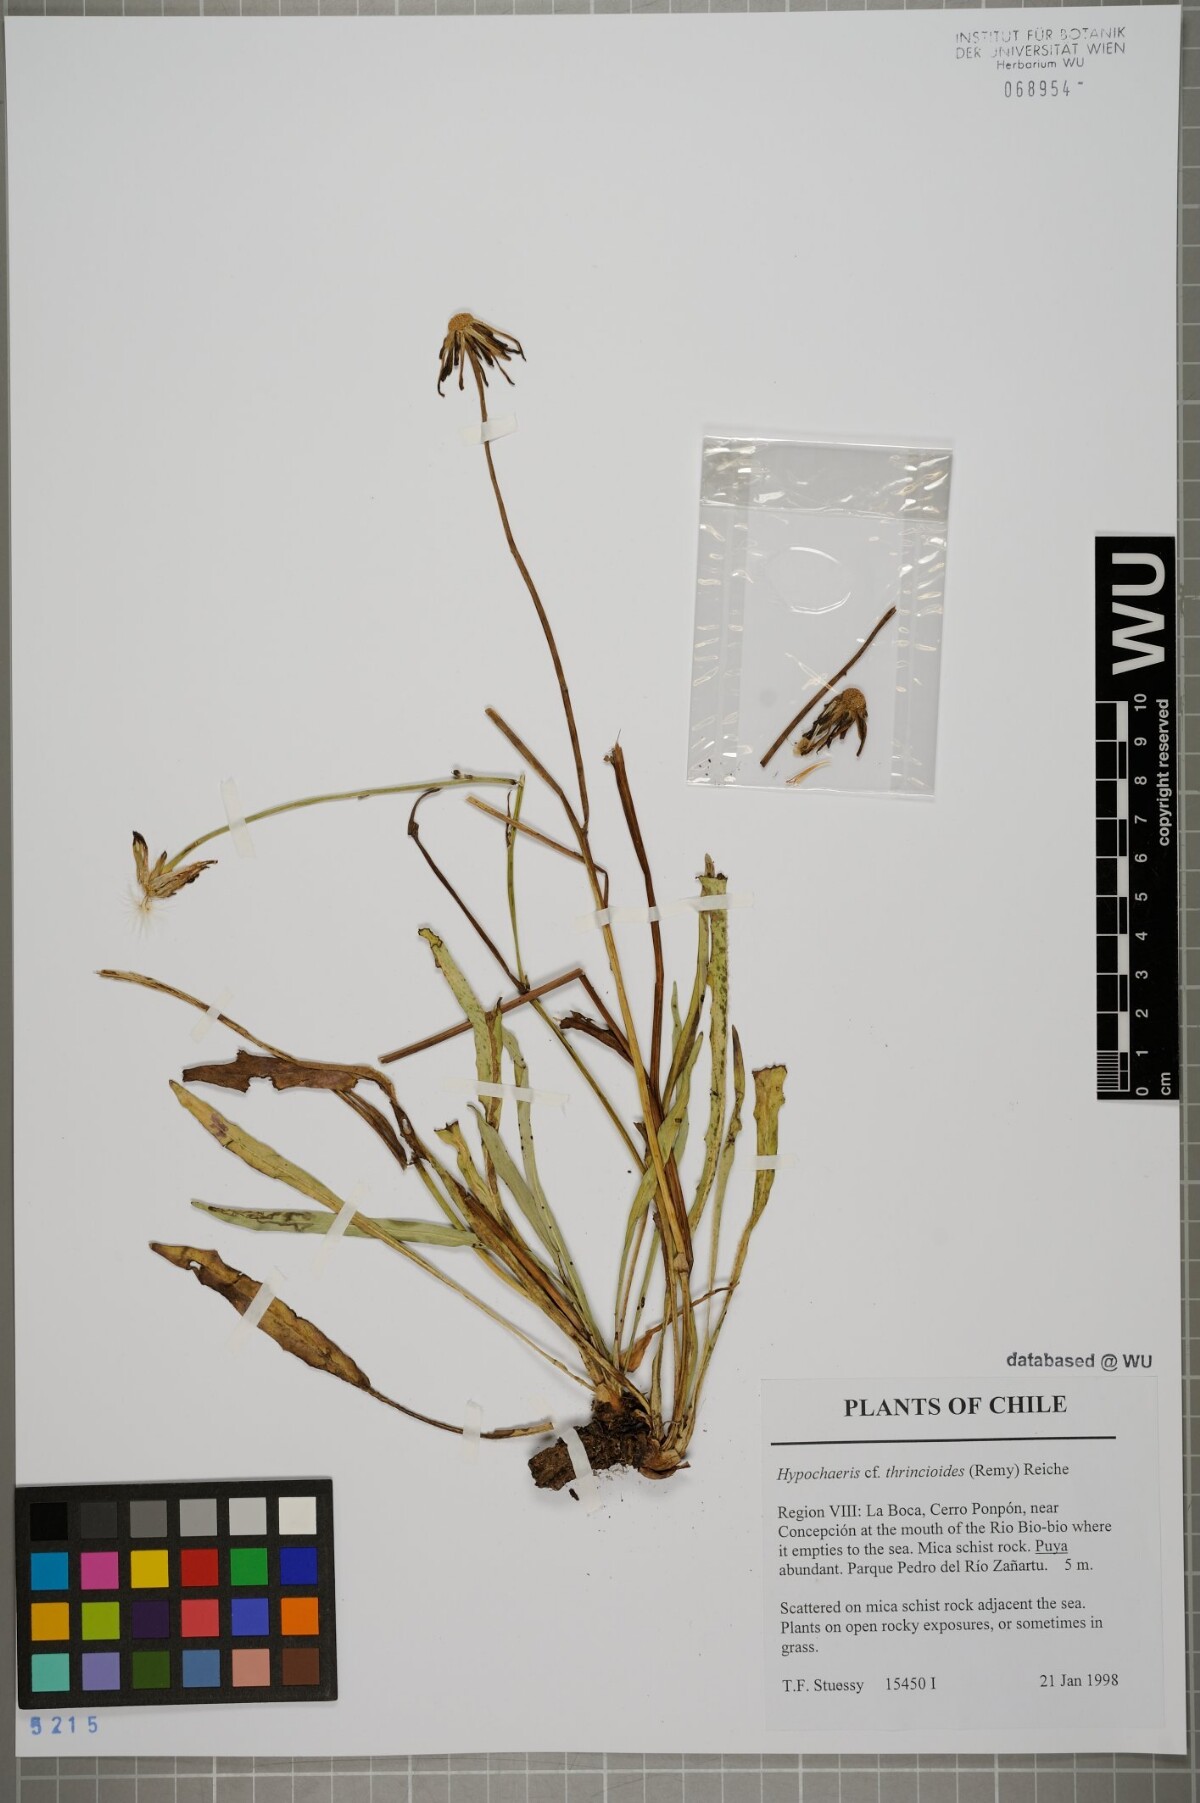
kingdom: Plantae
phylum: Tracheophyta
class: Magnoliopsida
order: Asterales
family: Asteraceae
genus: Hypochaeris
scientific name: Hypochaeris apargioides
